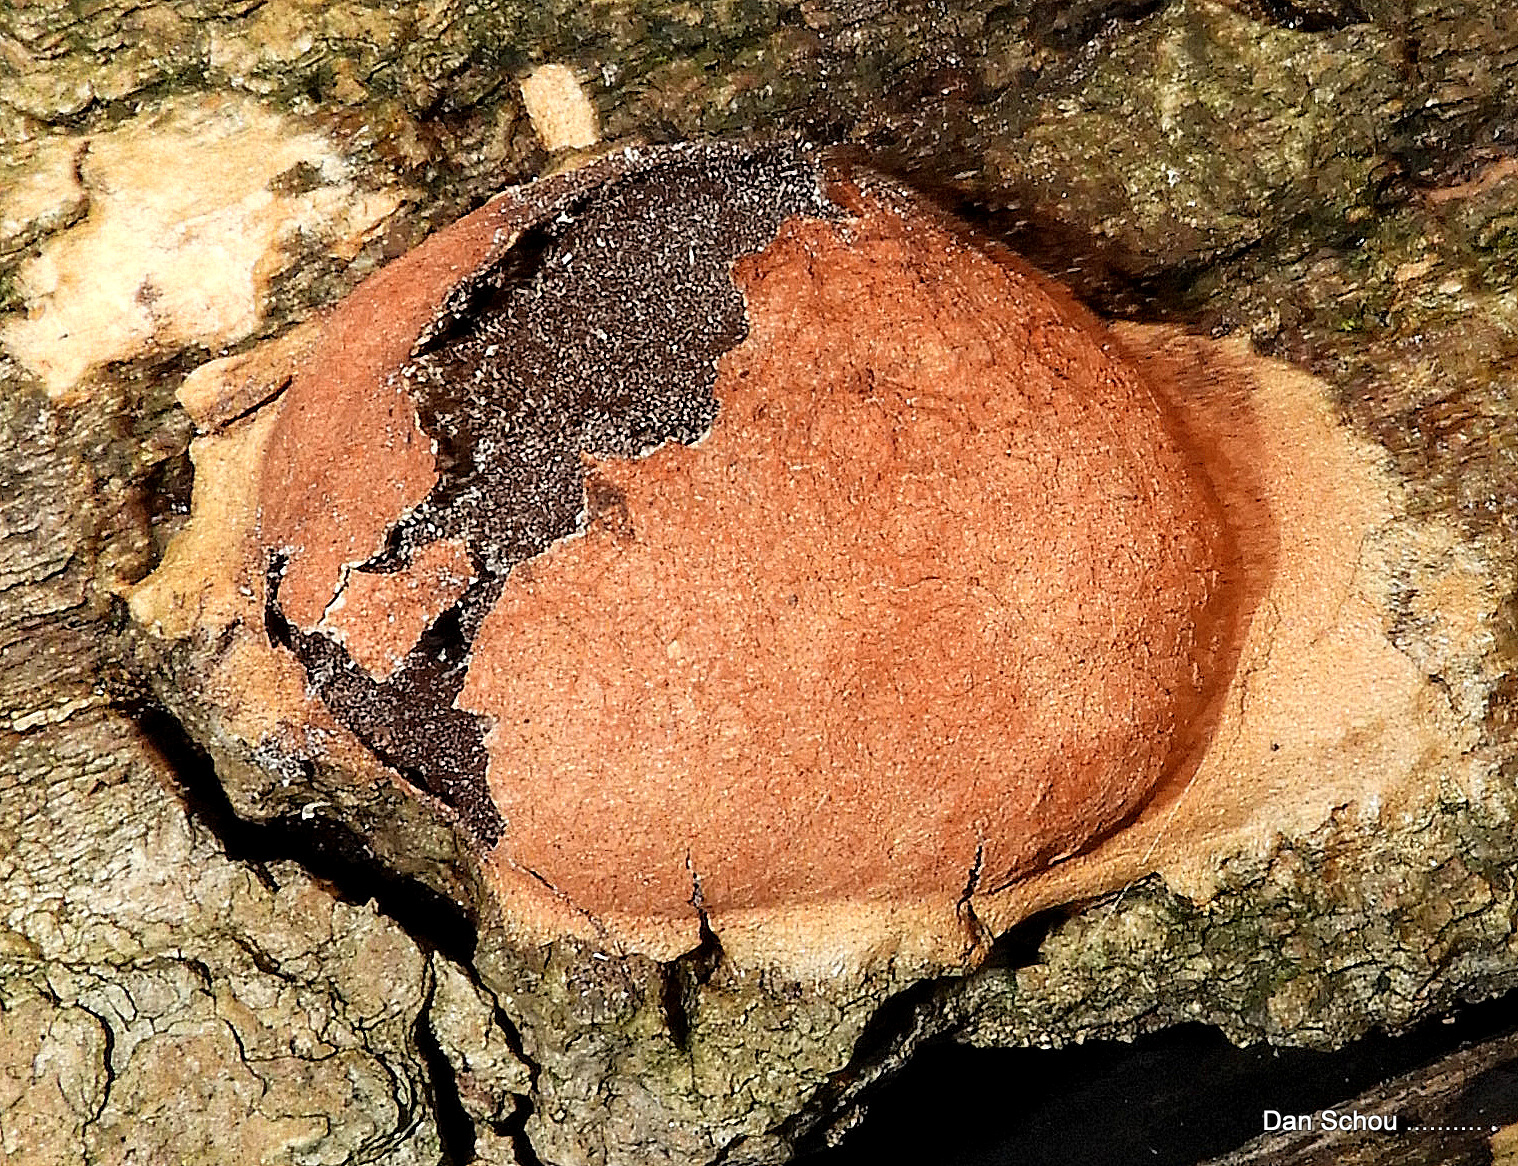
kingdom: Protozoa
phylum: Mycetozoa
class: Myxomycetes
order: Physarales
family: Physaraceae
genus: Fuligo
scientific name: Fuligo leviderma
